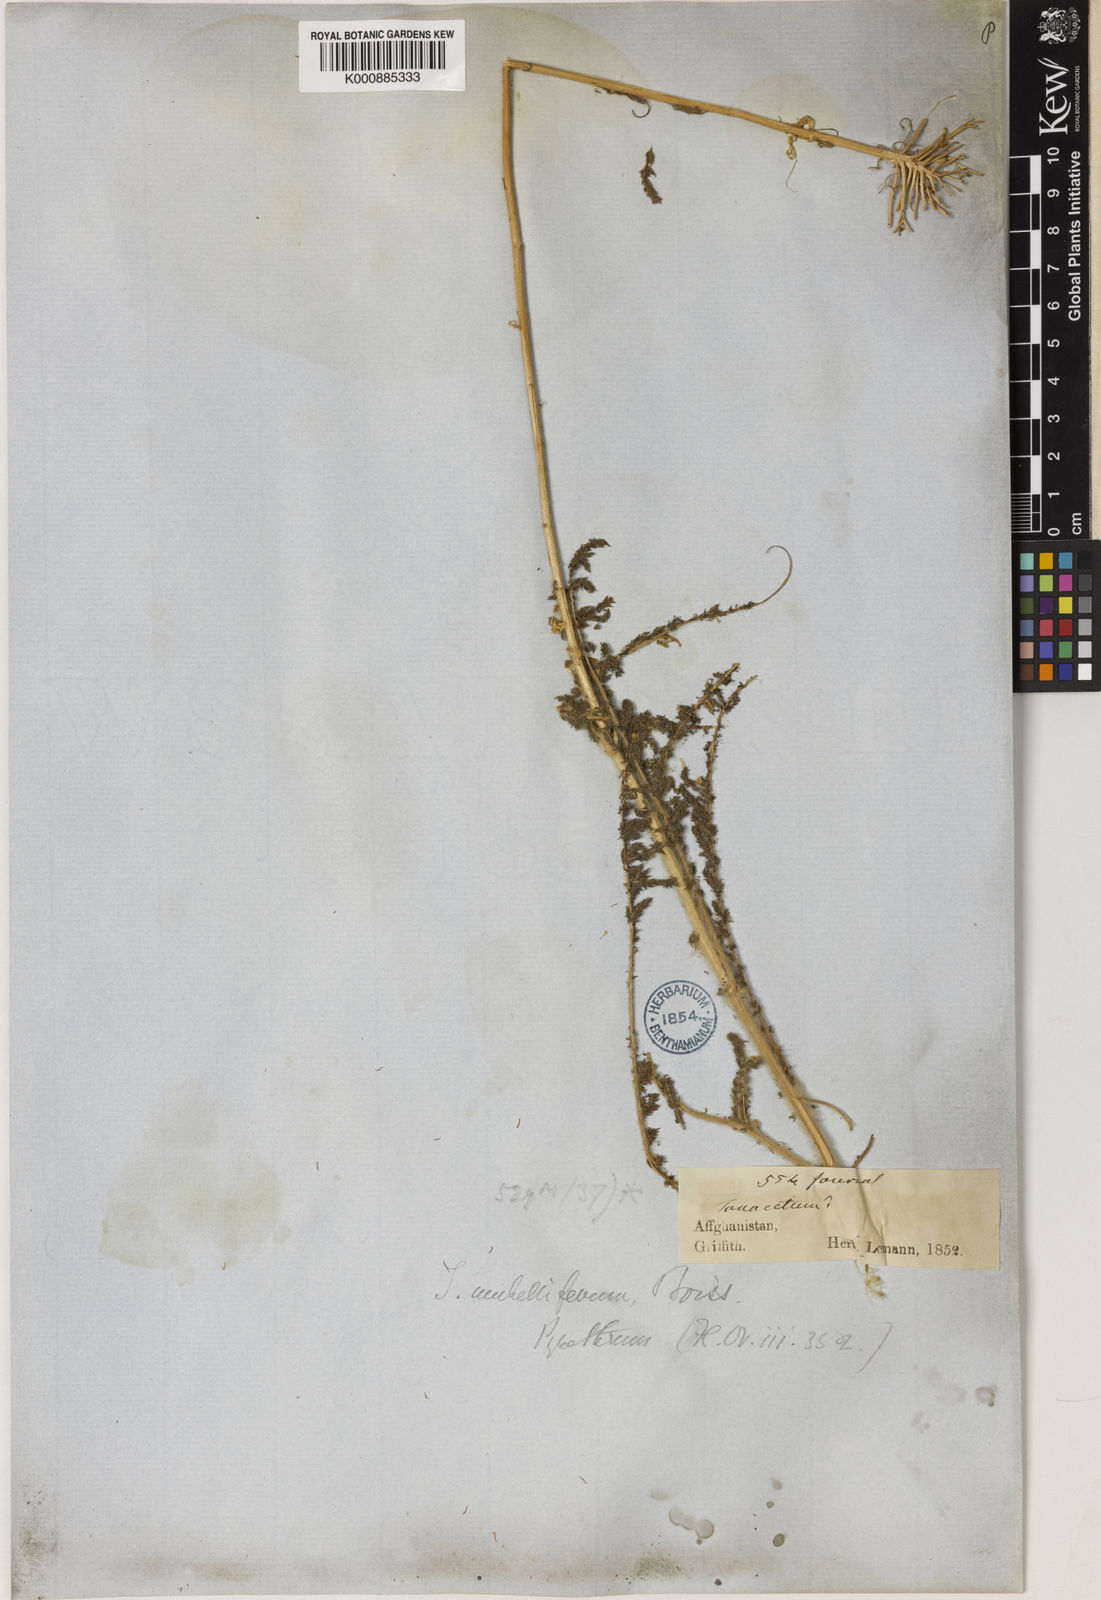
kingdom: Plantae
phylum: Tracheophyta
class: Magnoliopsida
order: Asterales
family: Asteraceae
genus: Pseudohandelia
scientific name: Pseudohandelia
